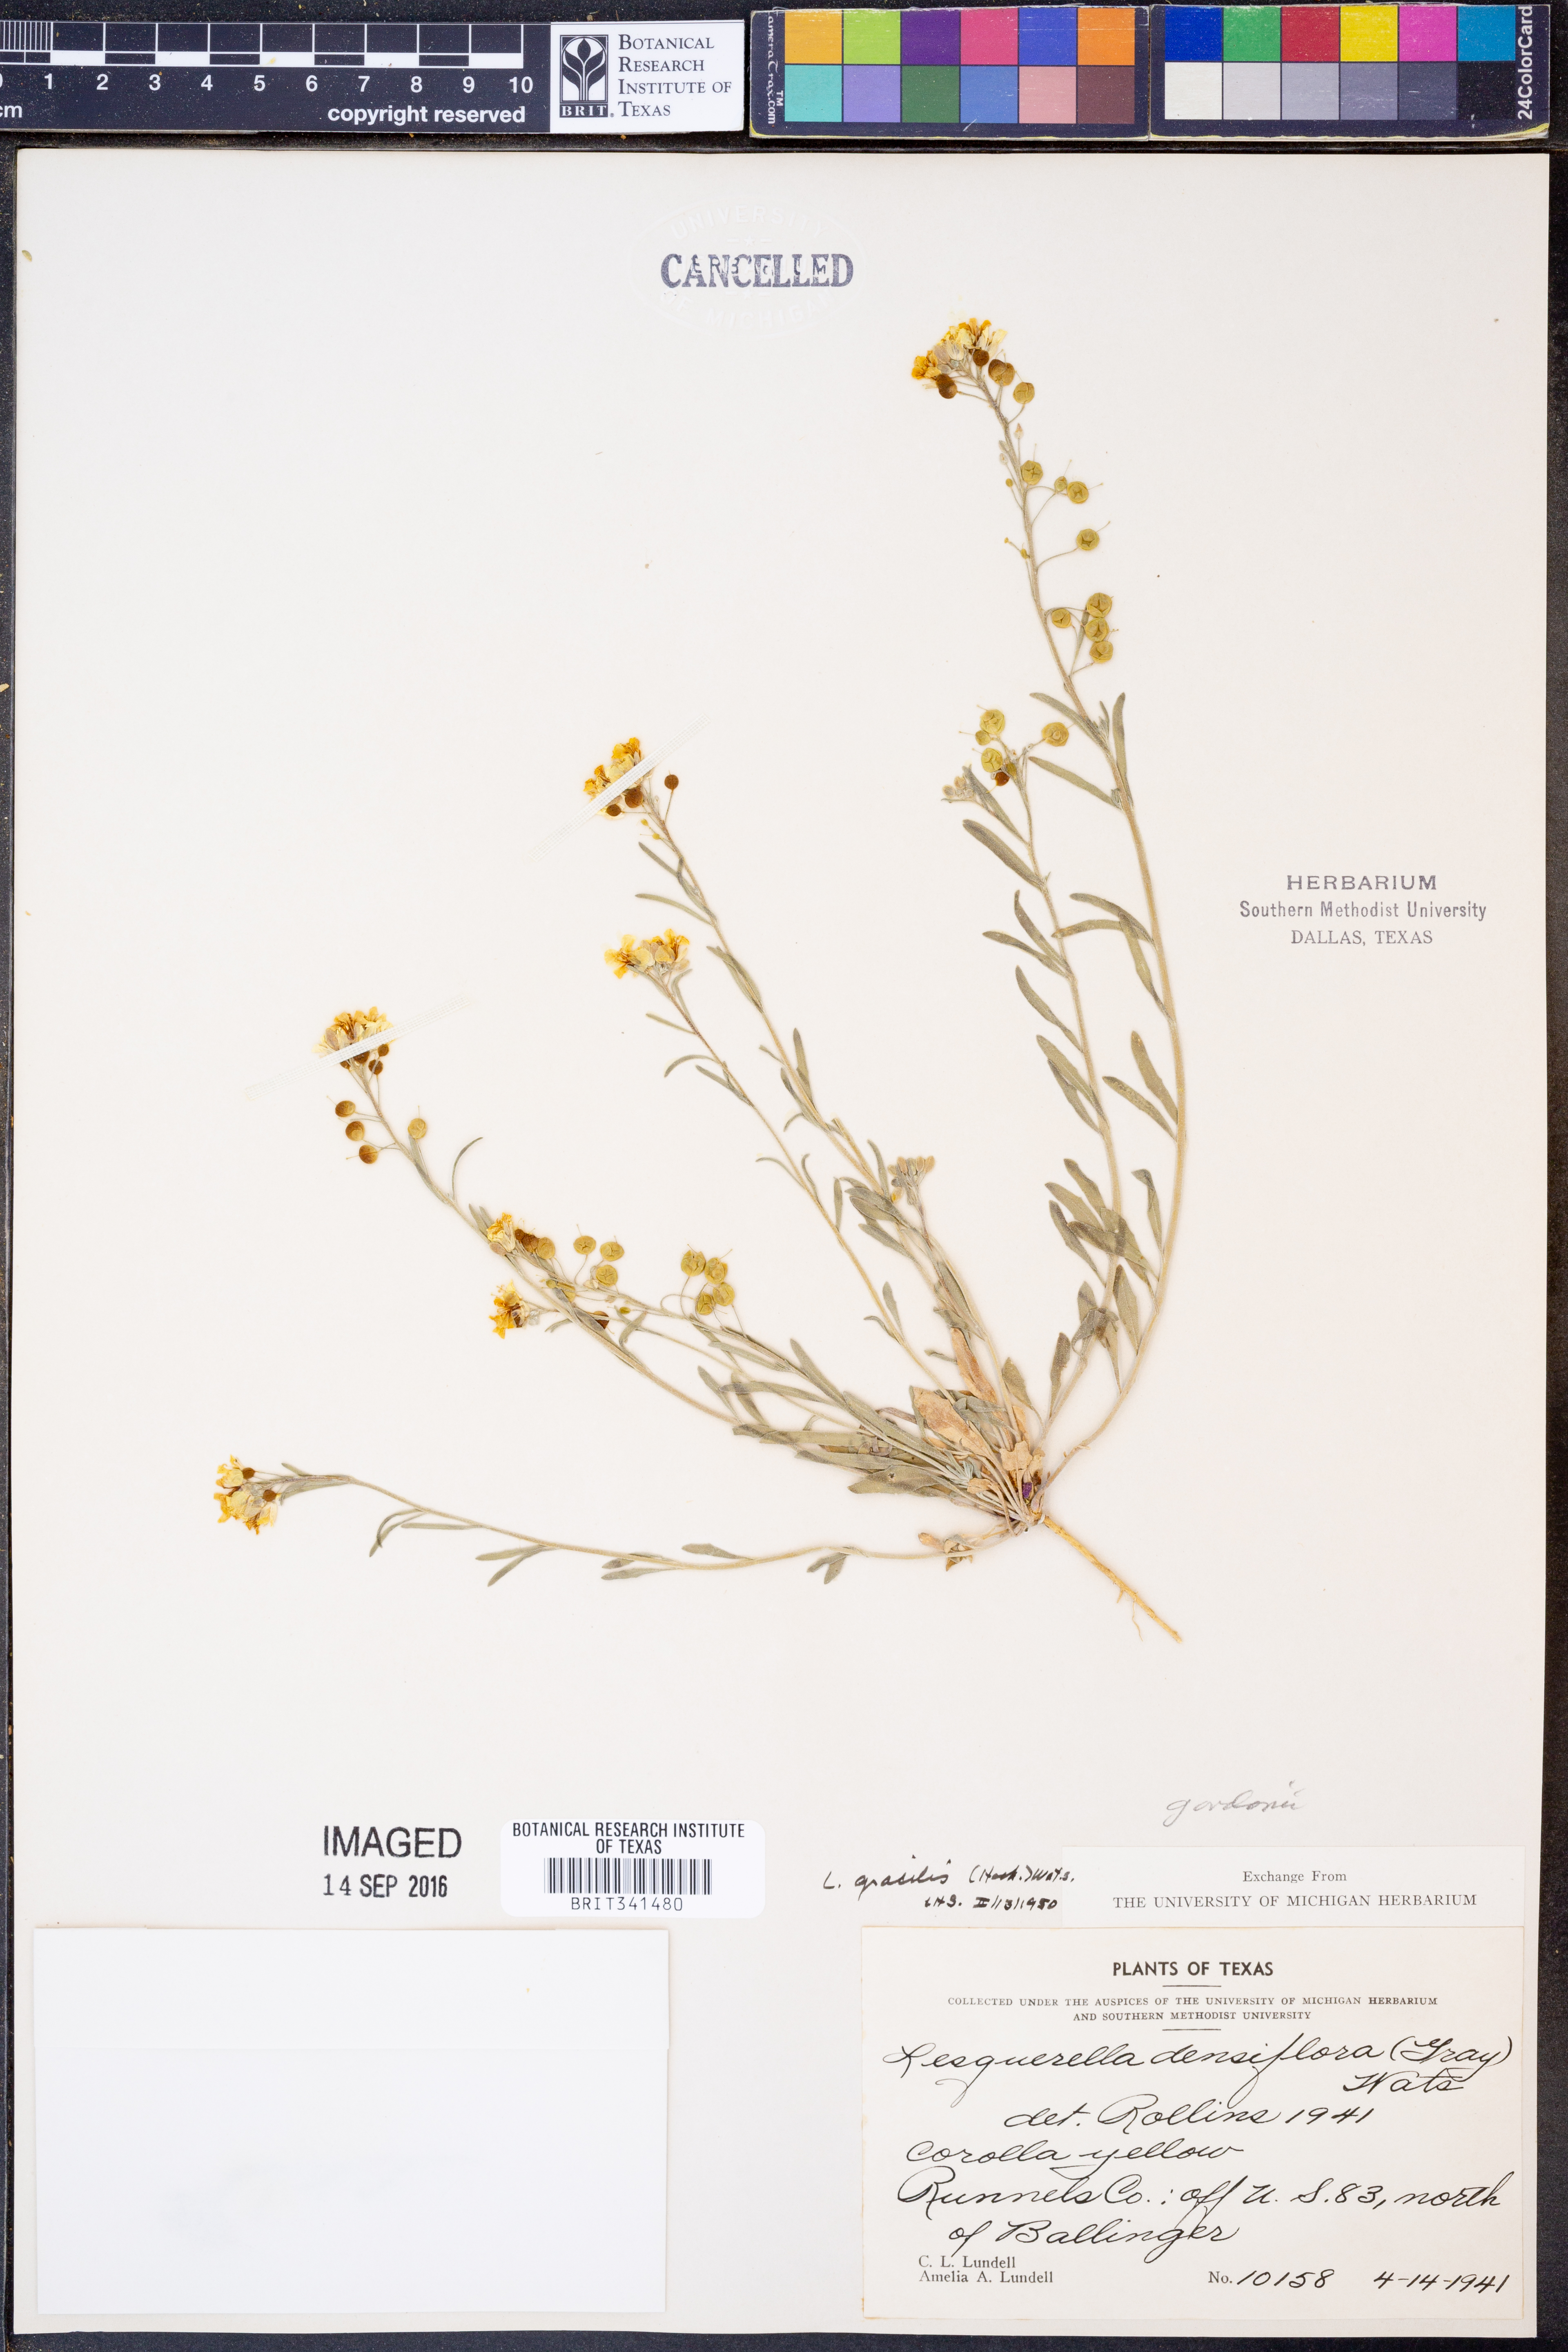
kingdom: Plantae
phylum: Tracheophyta
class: Magnoliopsida
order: Brassicales
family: Brassicaceae
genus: Physaria
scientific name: Physaria gordonii
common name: Gordon's bladderpod
